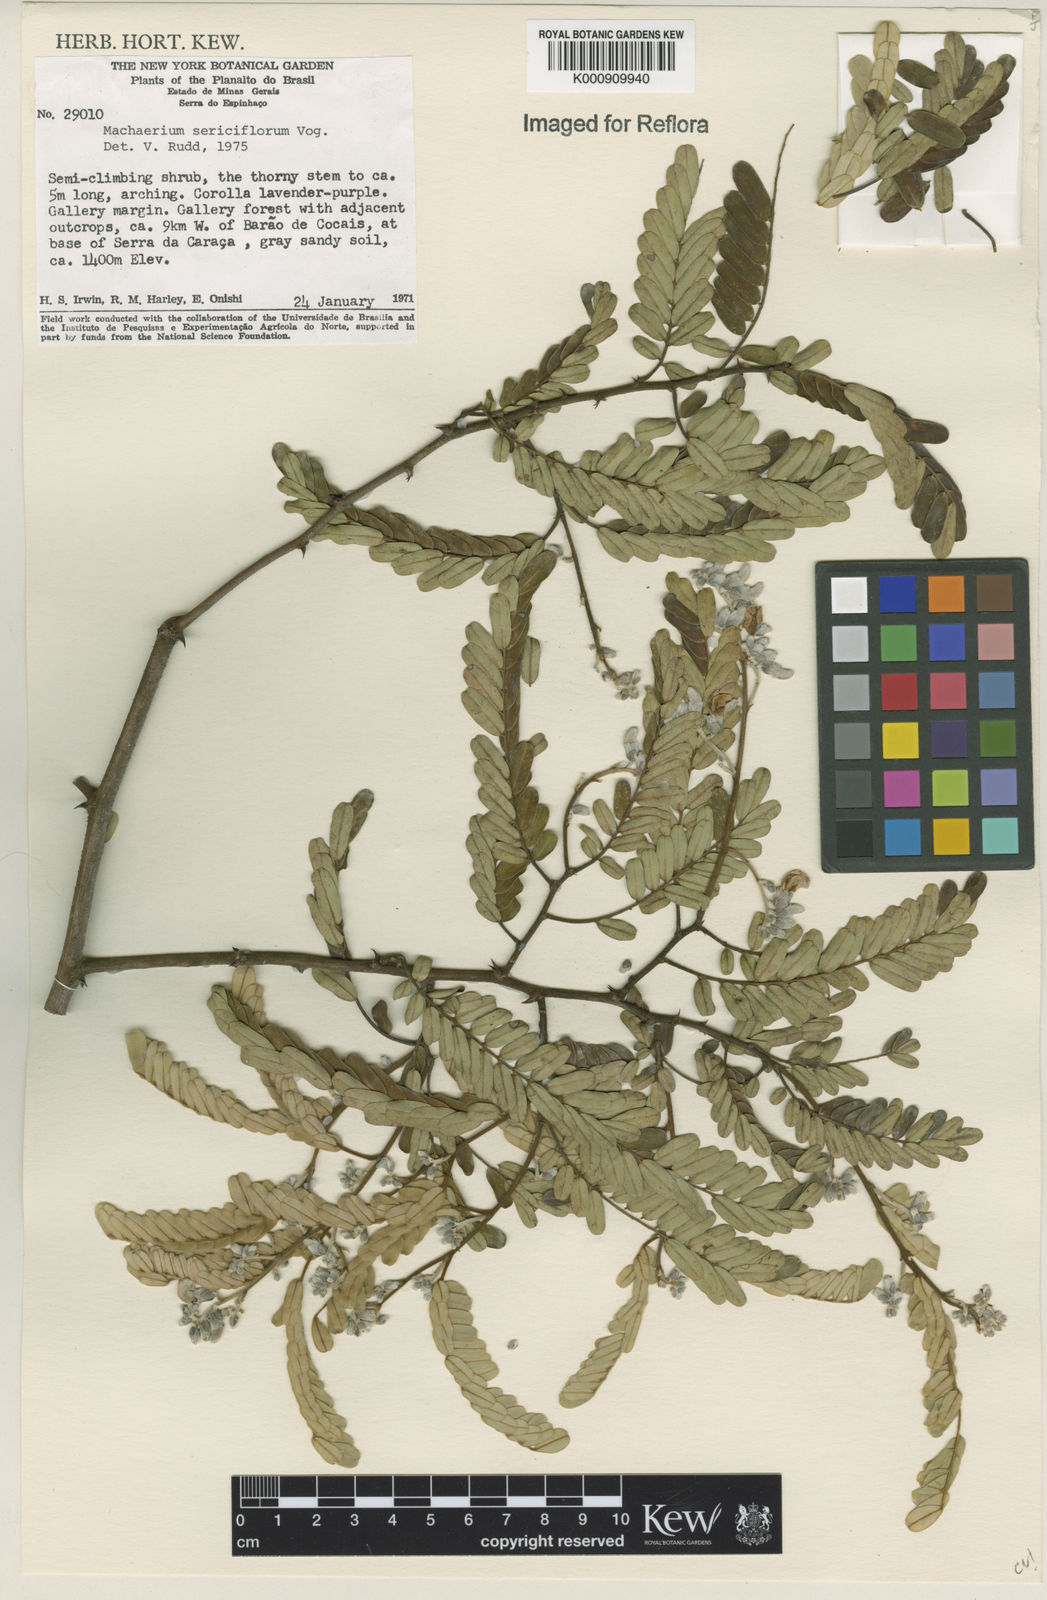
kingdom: Plantae
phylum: Tracheophyta
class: Magnoliopsida
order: Fabales
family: Fabaceae
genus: Machaerium
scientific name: Machaerium scleroxylon
